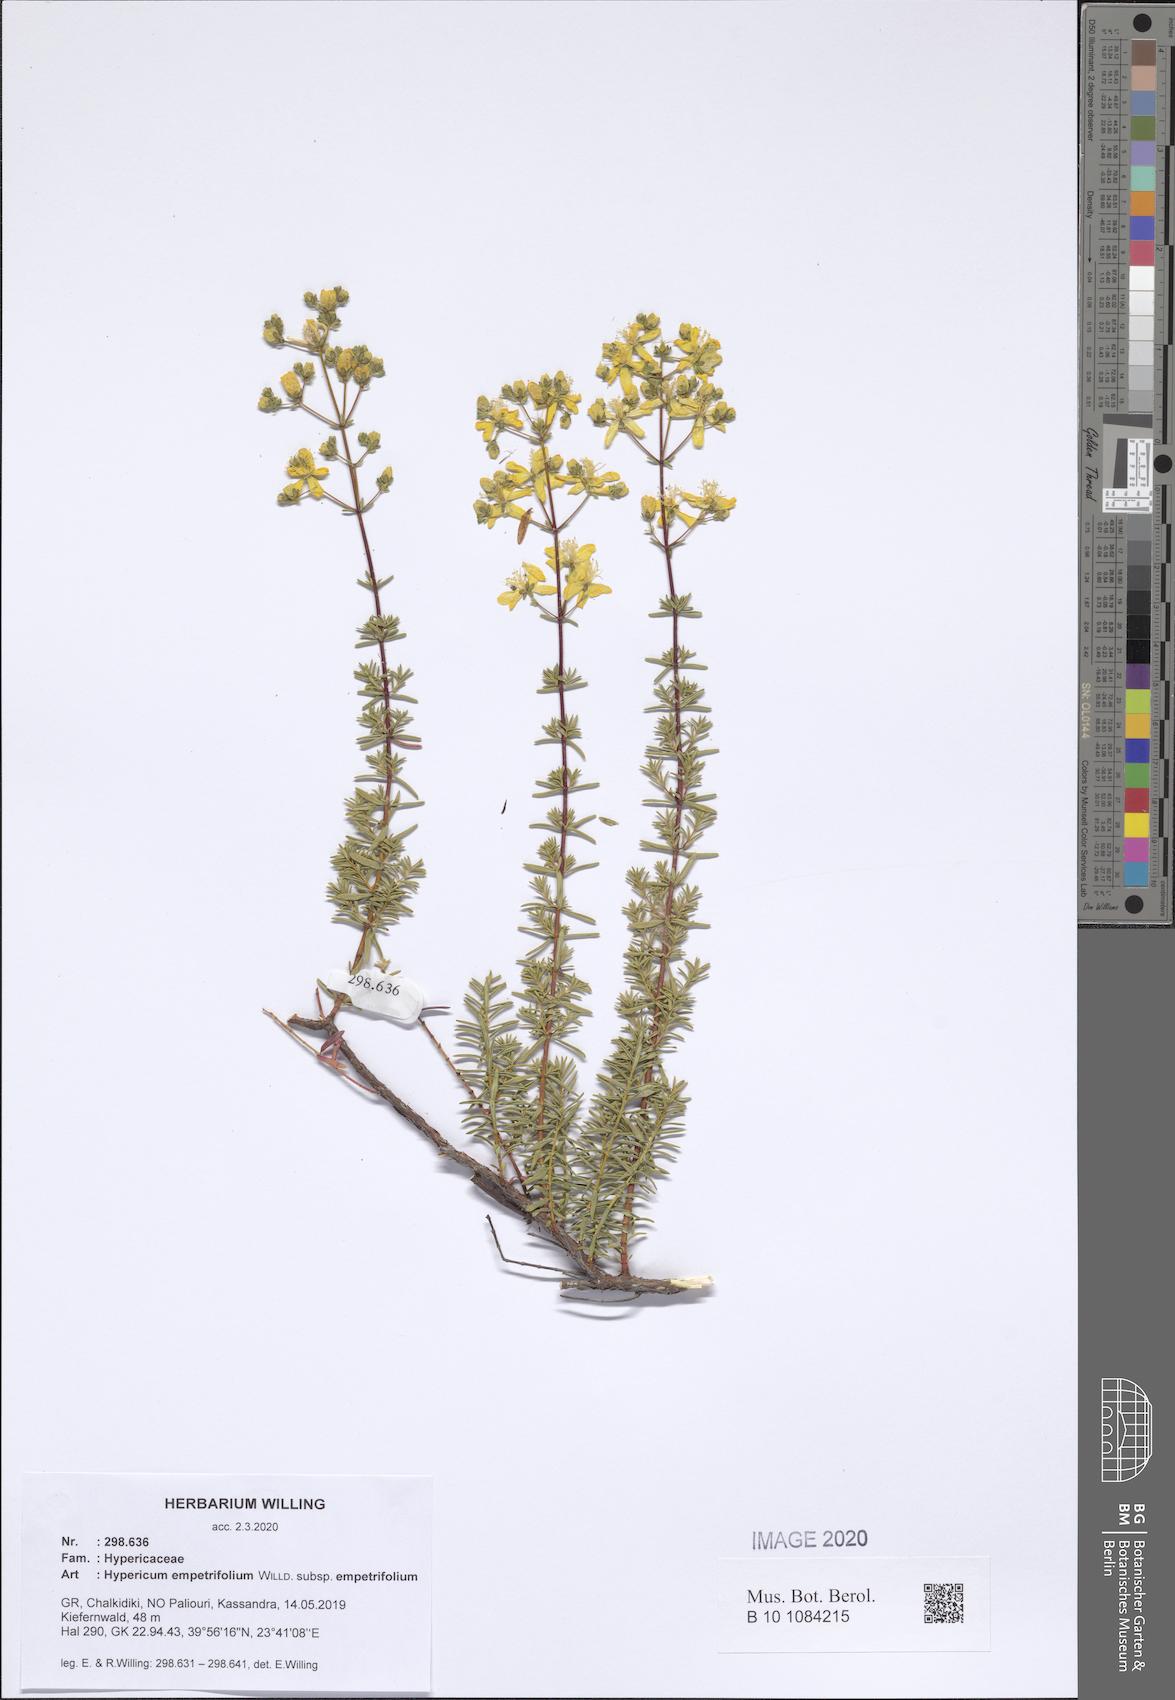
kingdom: Plantae
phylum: Tracheophyta
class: Magnoliopsida
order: Malpighiales
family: Hypericaceae
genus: Hypericum
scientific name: Hypericum empetrifolium
